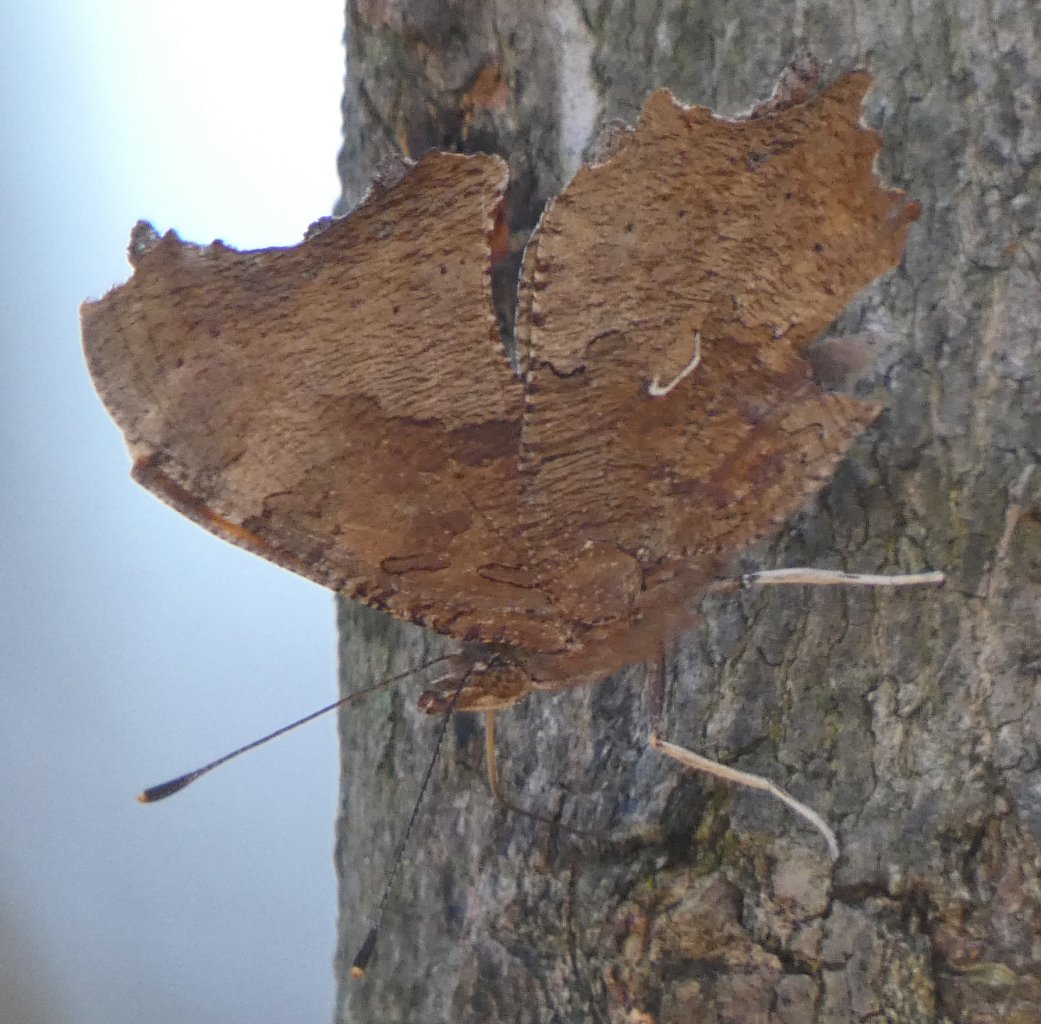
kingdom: Animalia
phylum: Arthropoda
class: Insecta
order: Lepidoptera
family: Nymphalidae
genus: Polygonia
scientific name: Polygonia comma
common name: Eastern Comma
